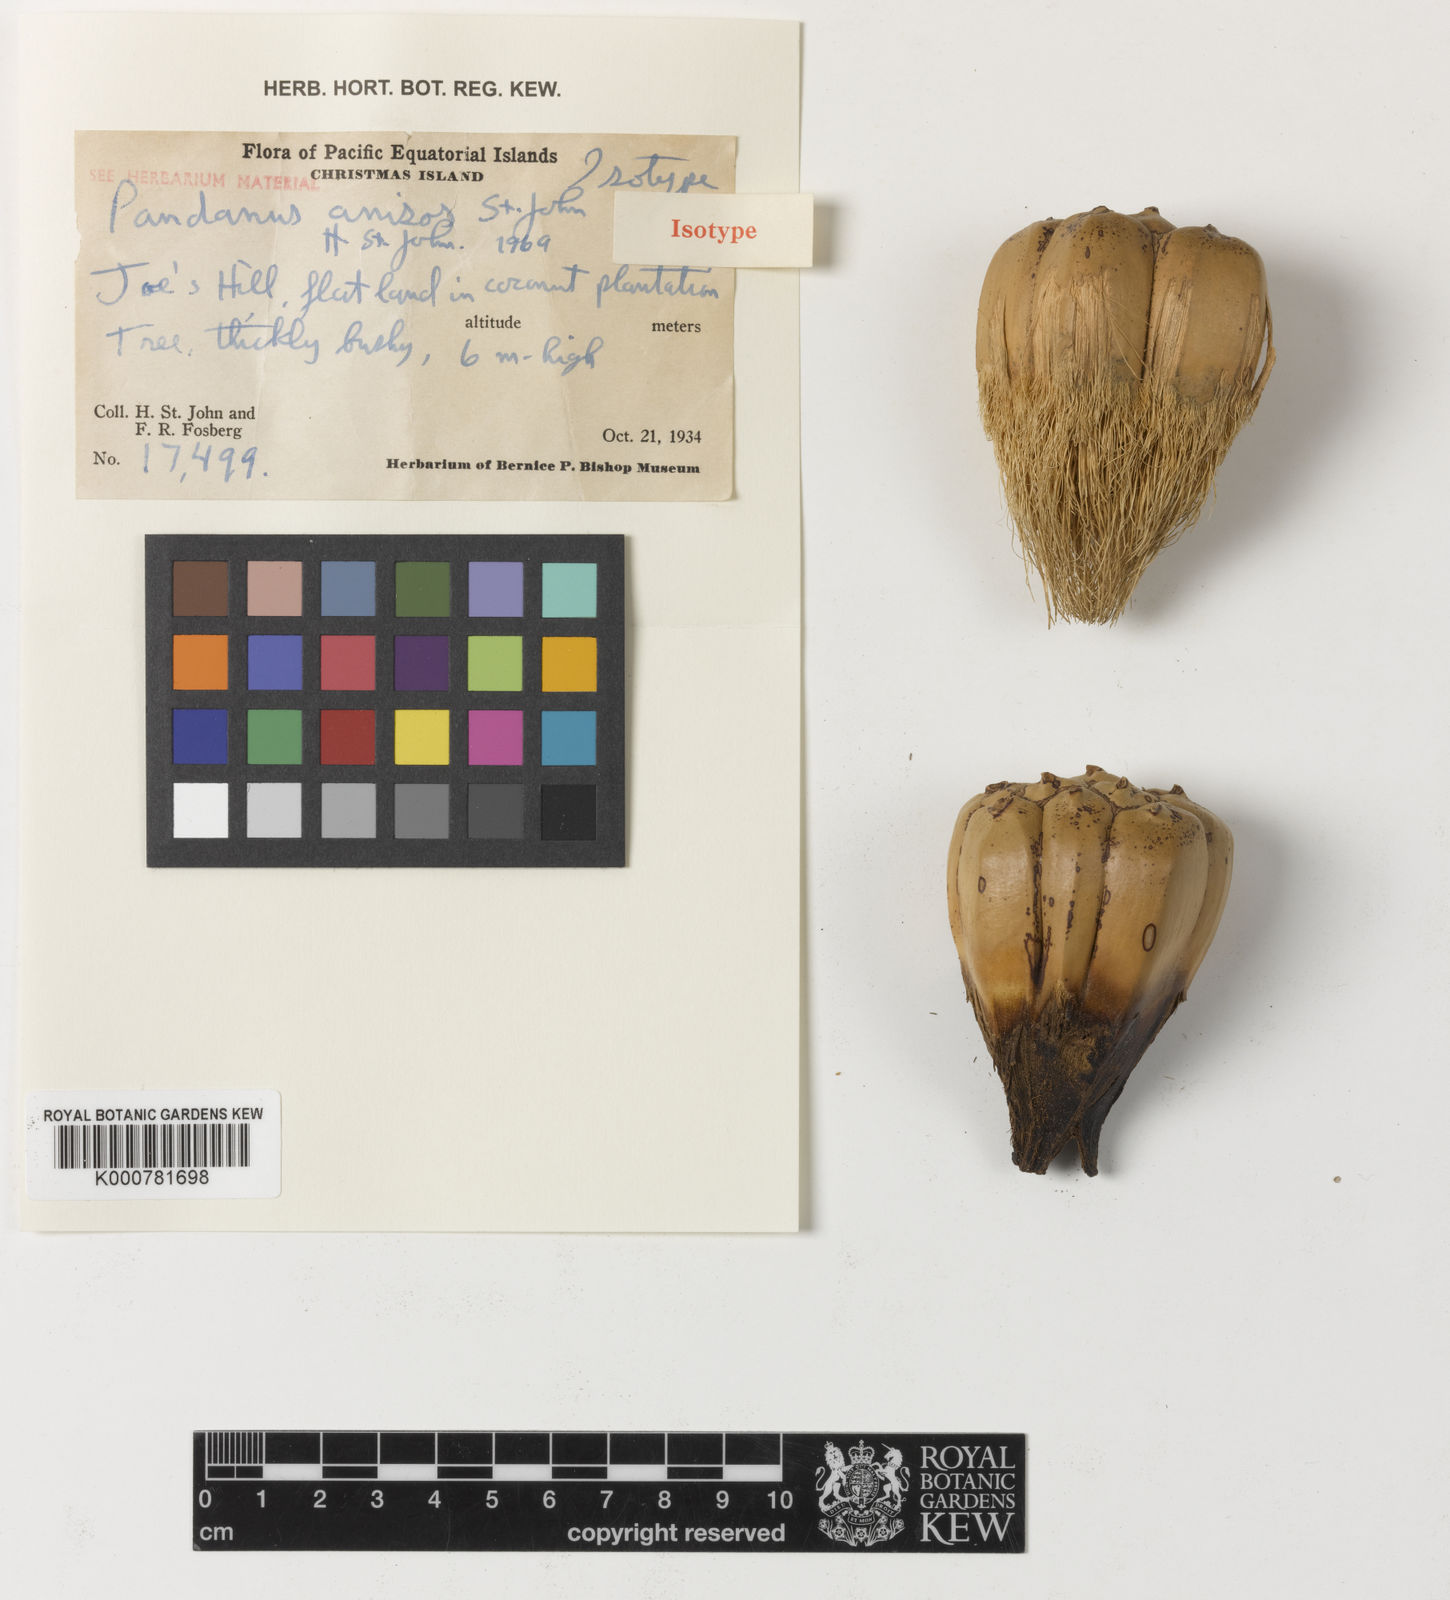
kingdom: Plantae
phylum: Tracheophyta
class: Liliopsida
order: Pandanales
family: Pandanaceae
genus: Pandanus
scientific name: Pandanus tectorius
